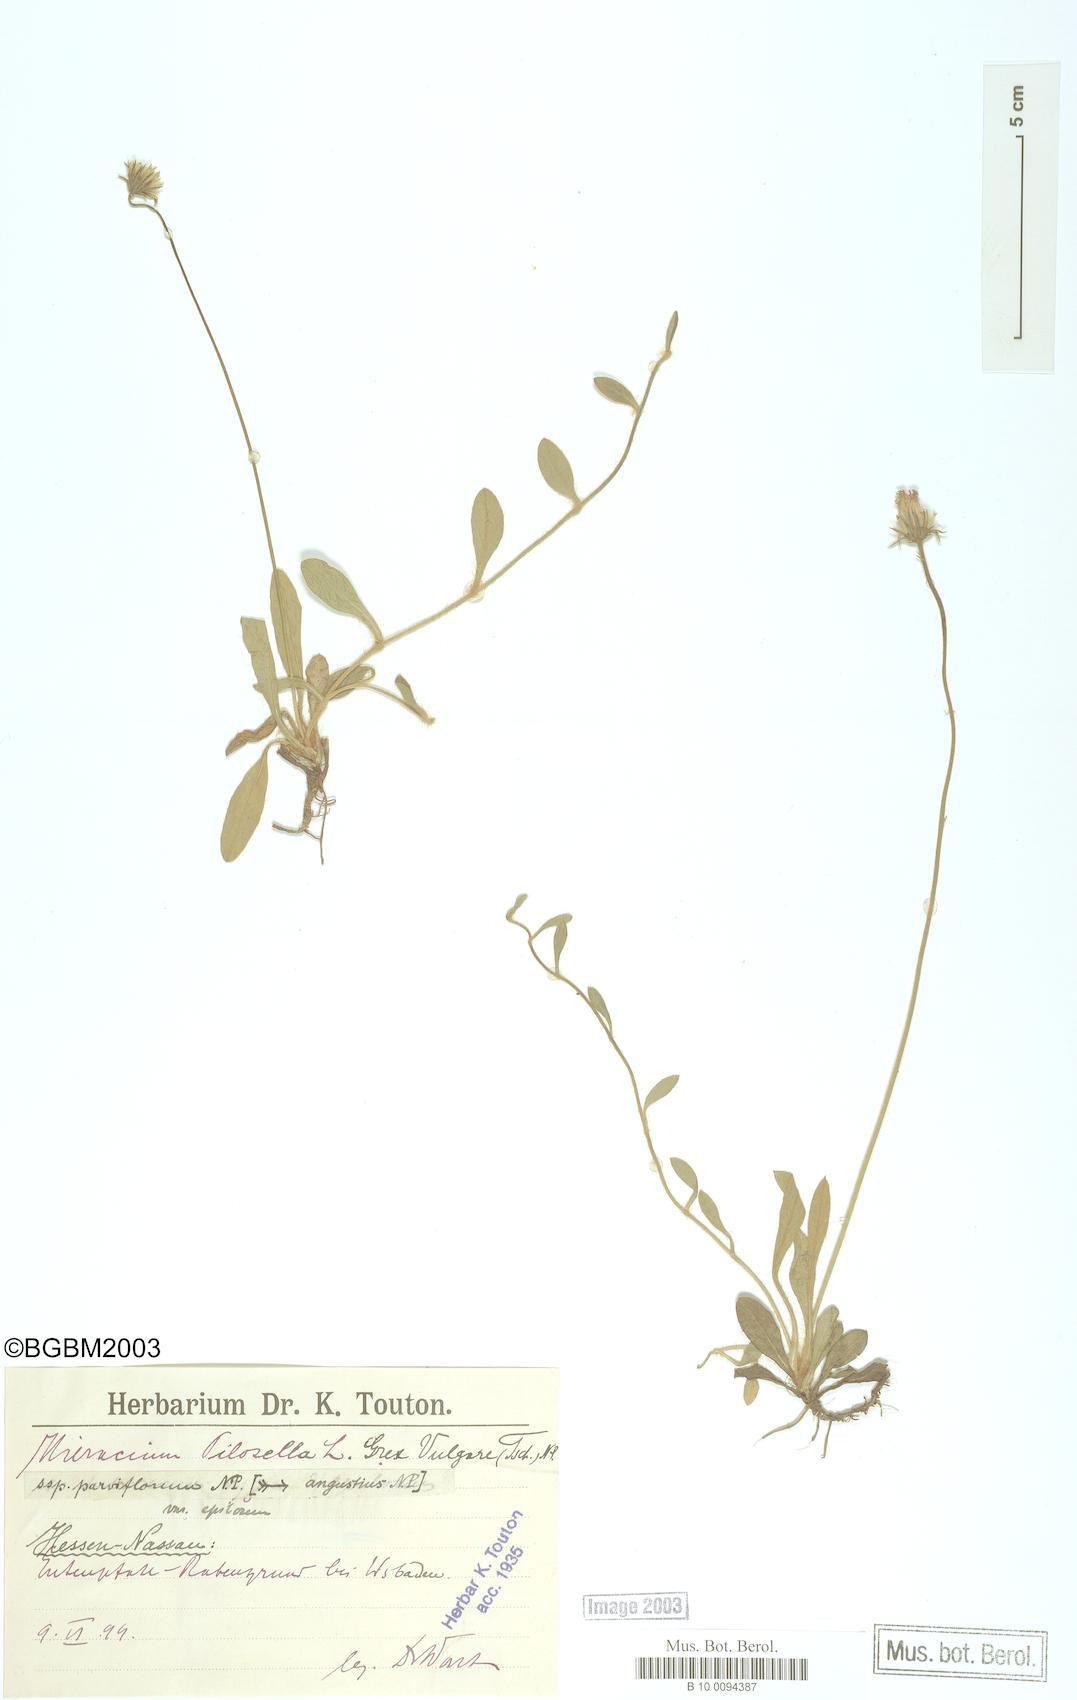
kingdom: Plantae
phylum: Tracheophyta
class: Magnoliopsida
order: Asterales
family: Asteraceae
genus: Pilosella
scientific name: Pilosella officinarum
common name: Mouse-ear hawkweed
